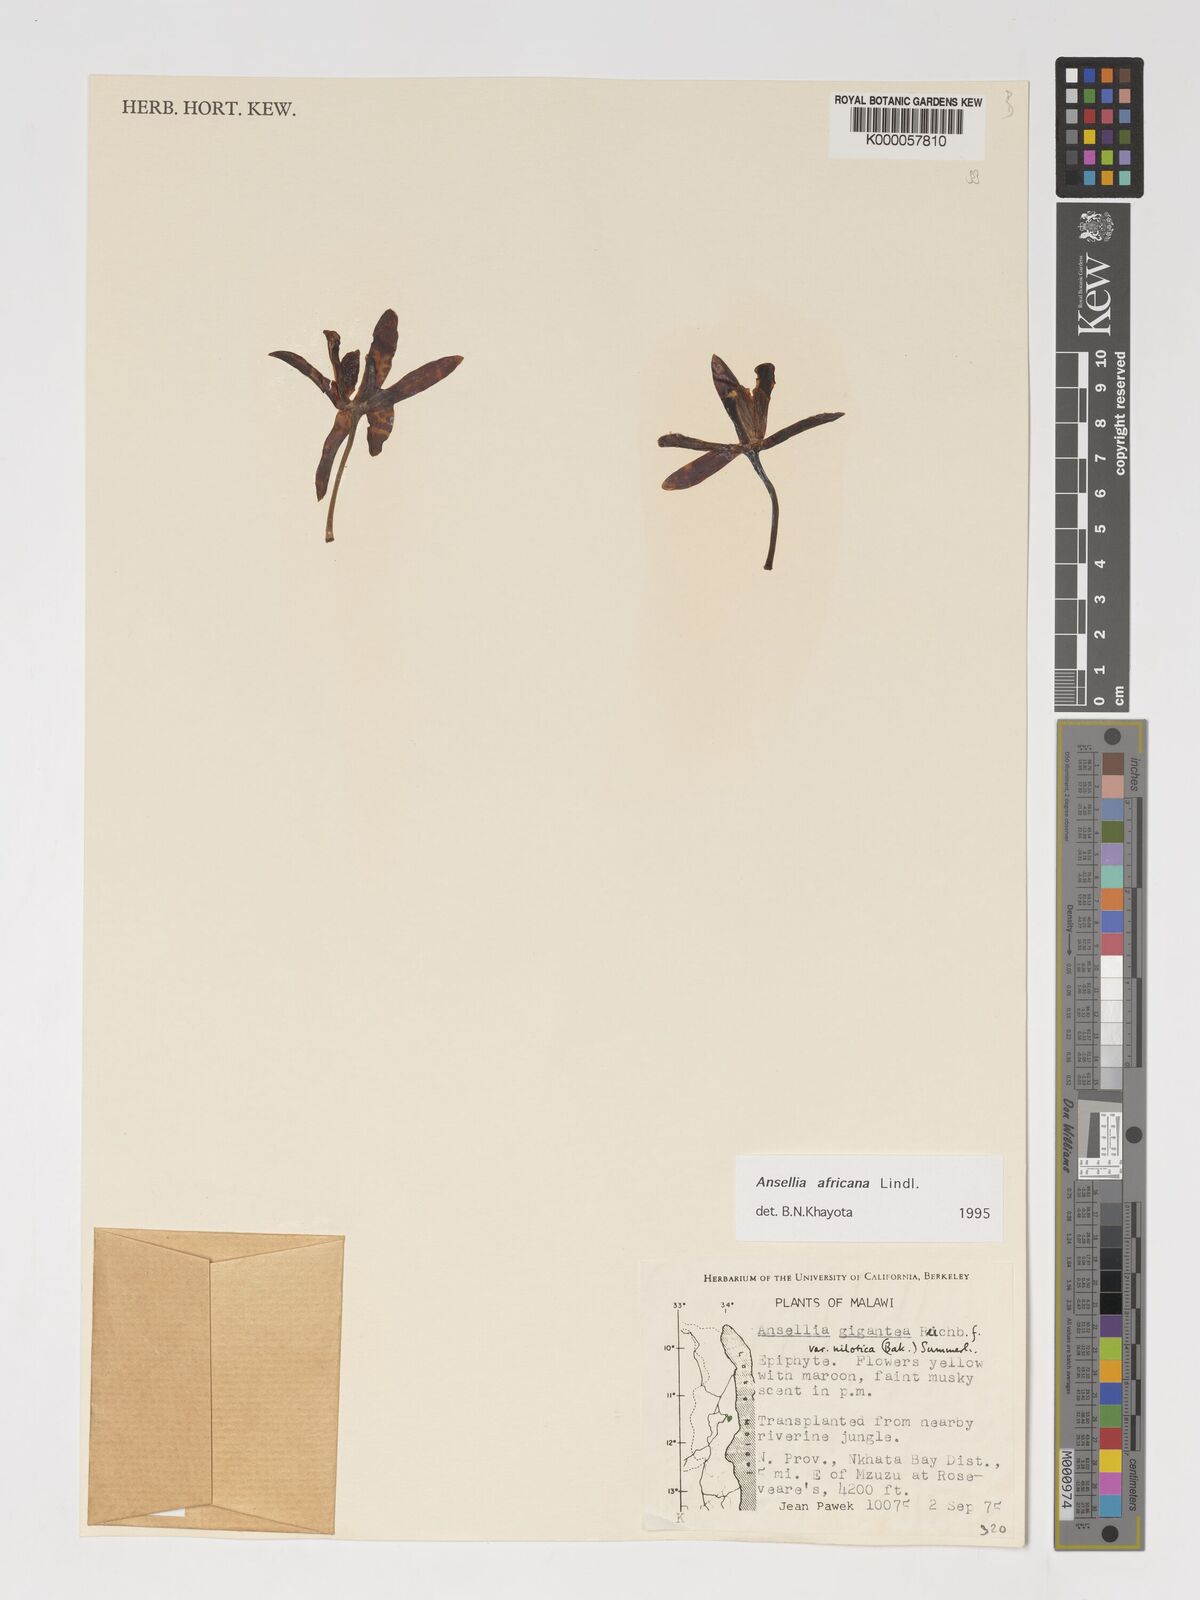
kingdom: Plantae
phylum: Tracheophyta
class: Liliopsida
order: Asparagales
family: Orchidaceae
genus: Ansellia
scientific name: Ansellia africana
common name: African ansellia
